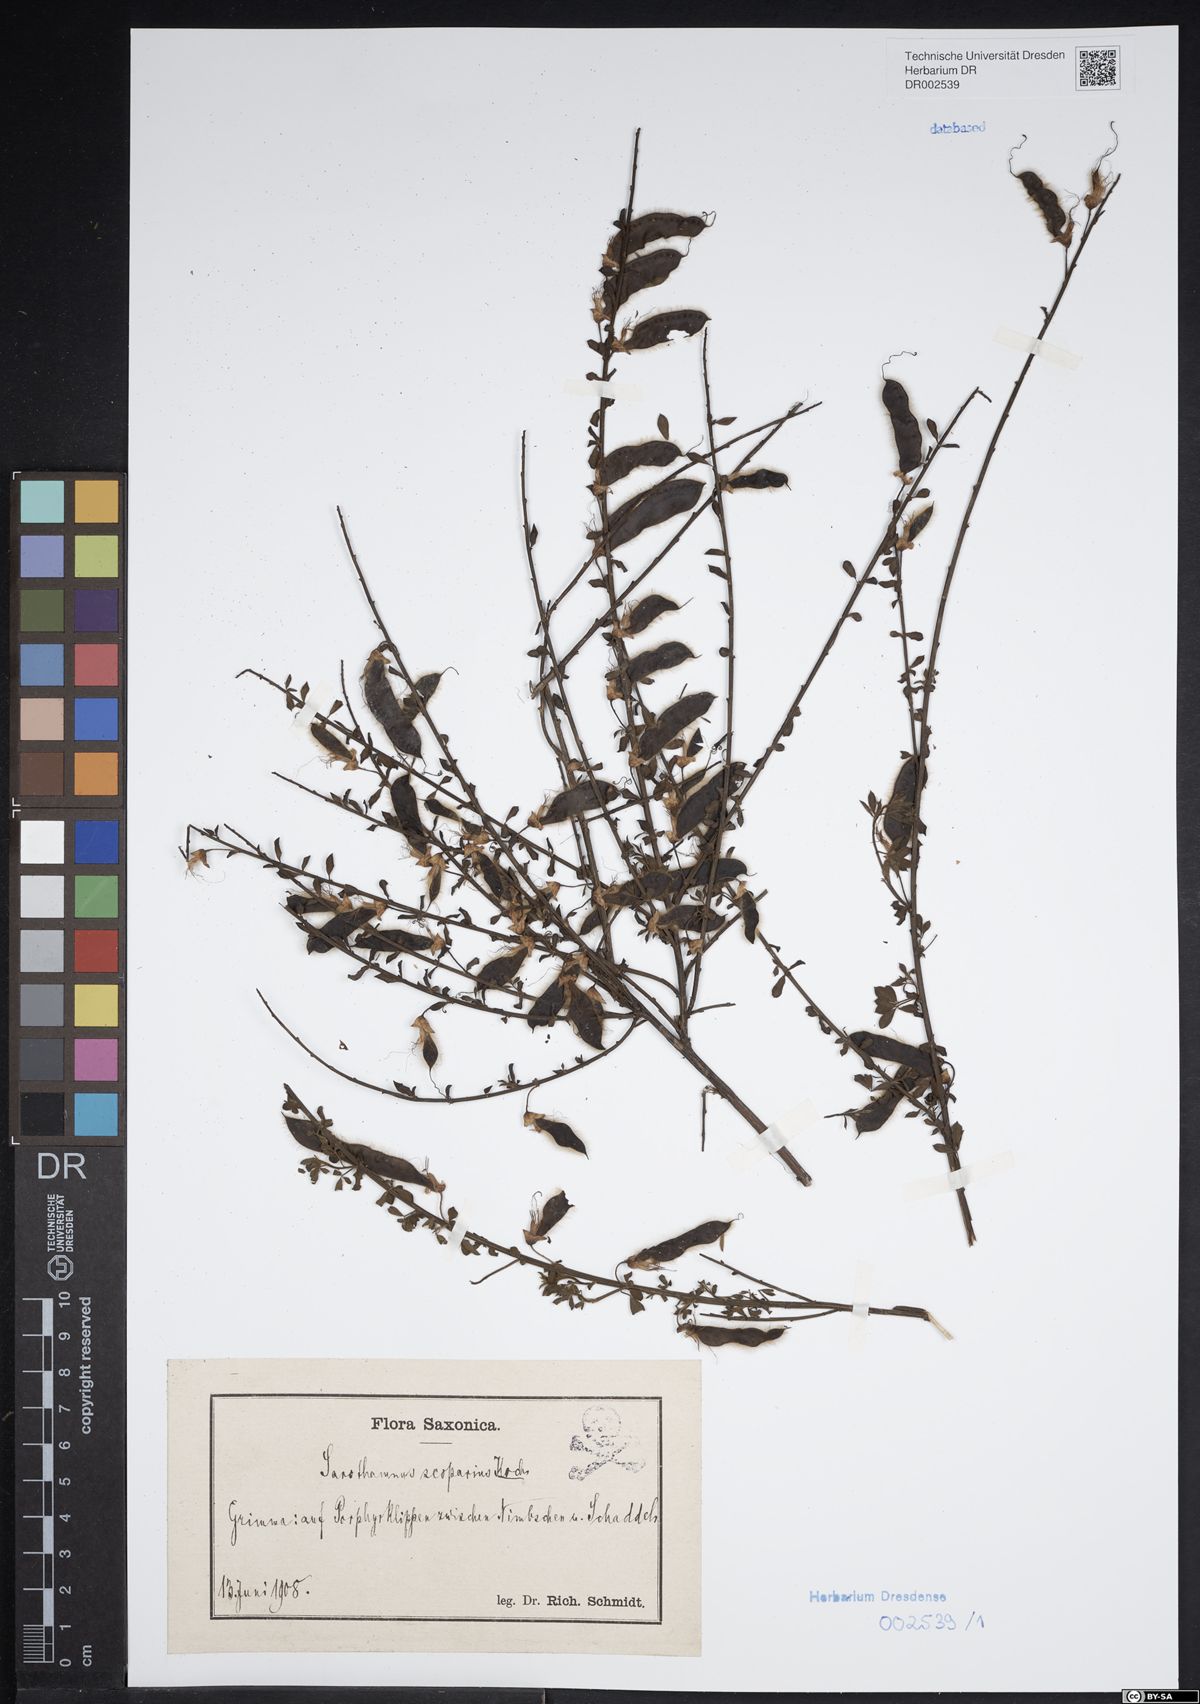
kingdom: Plantae
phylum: Tracheophyta
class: Magnoliopsida
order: Fabales
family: Fabaceae
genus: Cytisus
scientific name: Cytisus scoparius
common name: Scotch broom
